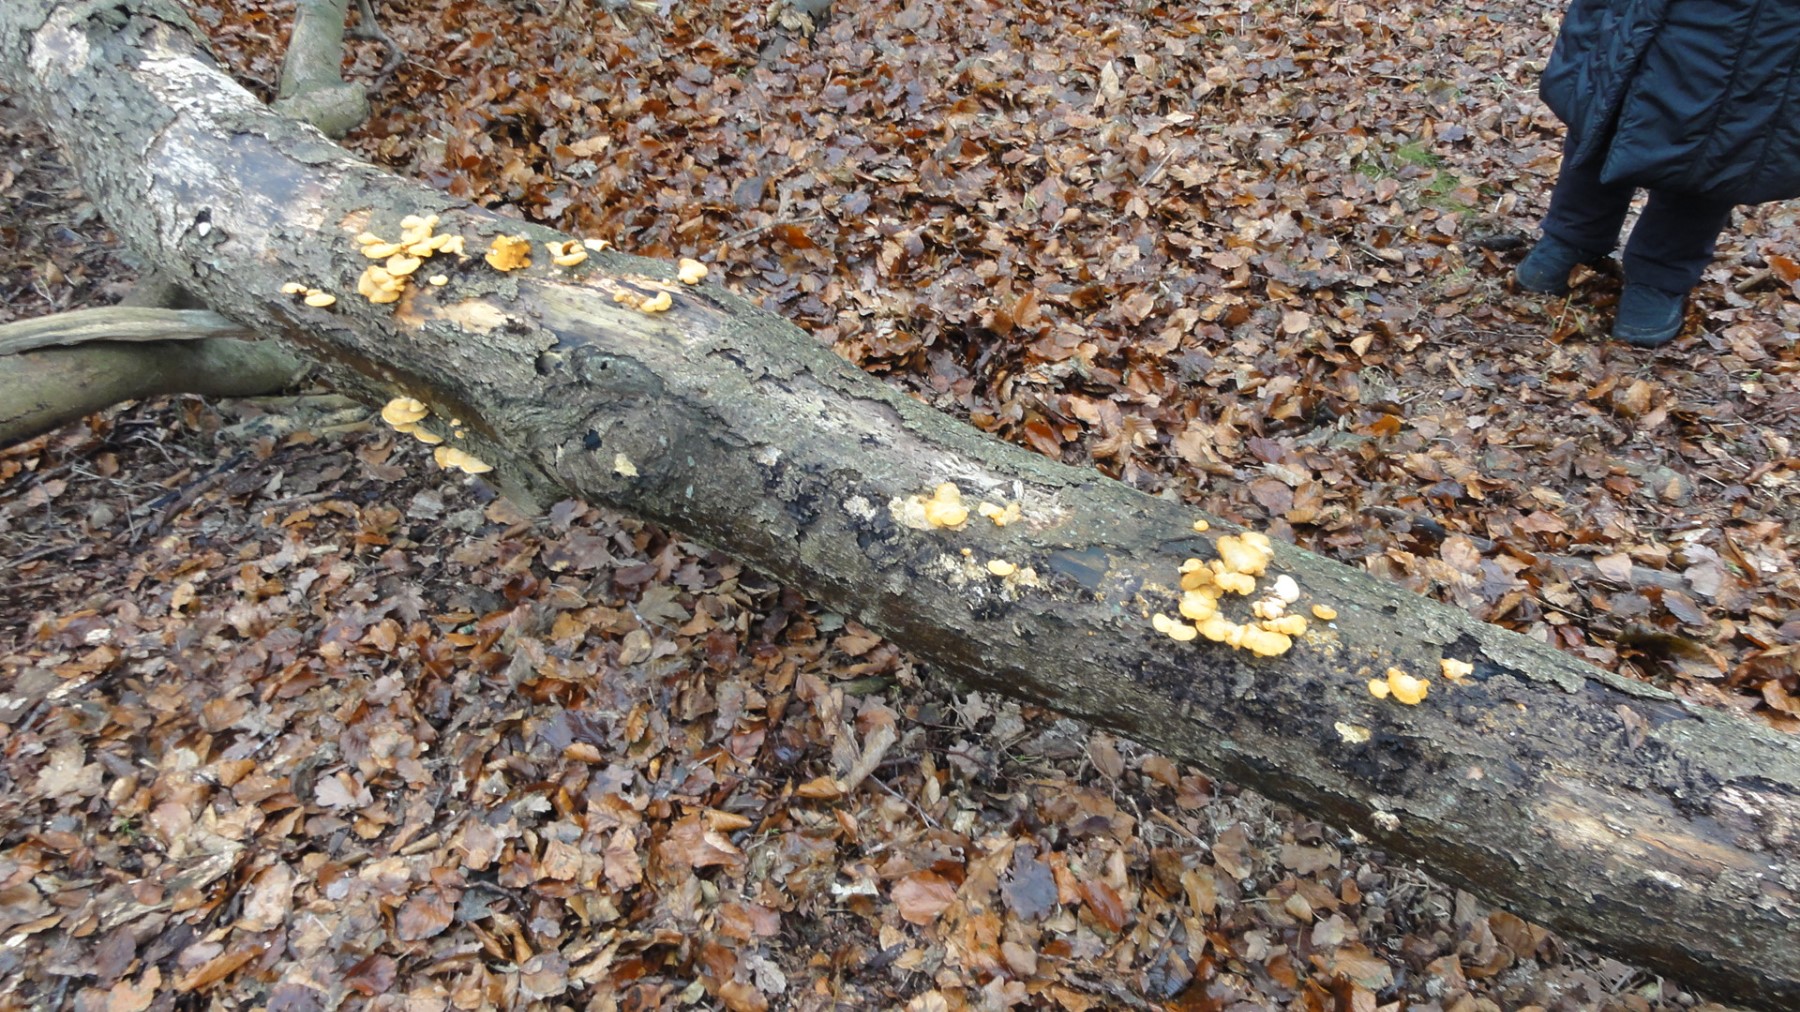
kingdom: Fungi
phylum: Basidiomycota
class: Agaricomycetes
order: Agaricales
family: Phyllotopsidaceae
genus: Phyllotopsis
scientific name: Phyllotopsis nidulans
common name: okkerblad
